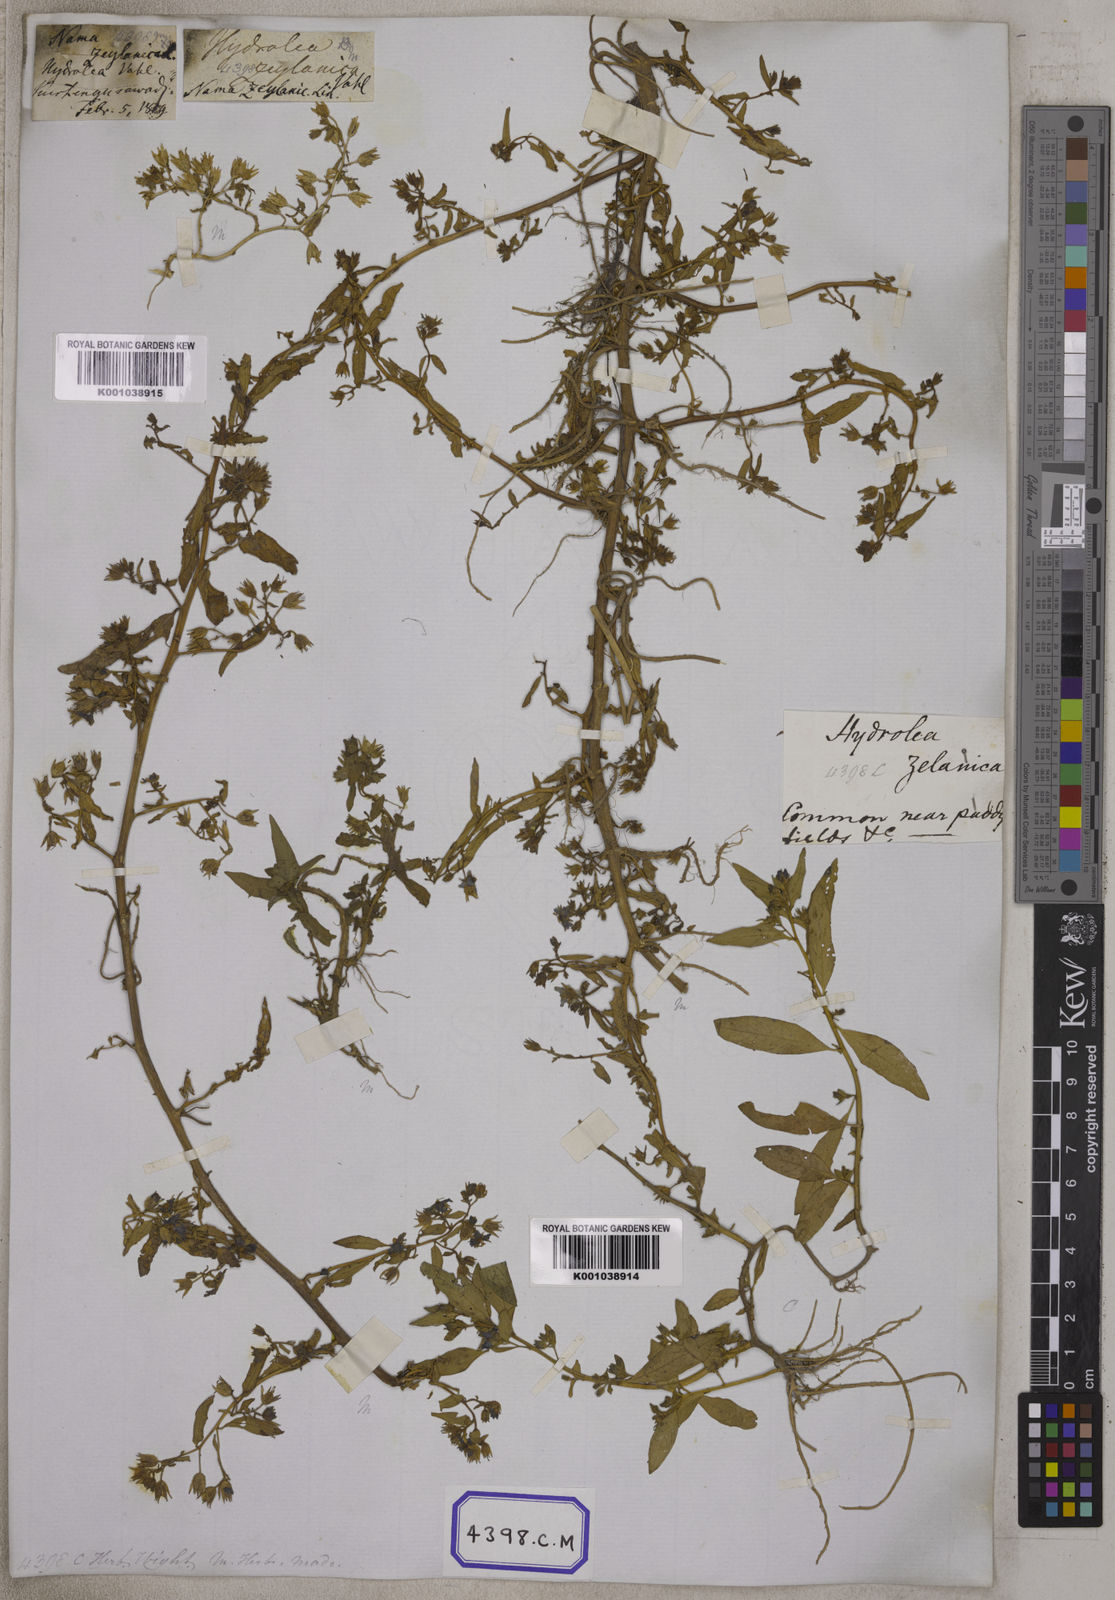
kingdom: Plantae
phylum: Tracheophyta
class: Magnoliopsida
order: Solanales
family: Hydroleaceae
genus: Hydrolea
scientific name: Hydrolea zeylanica
